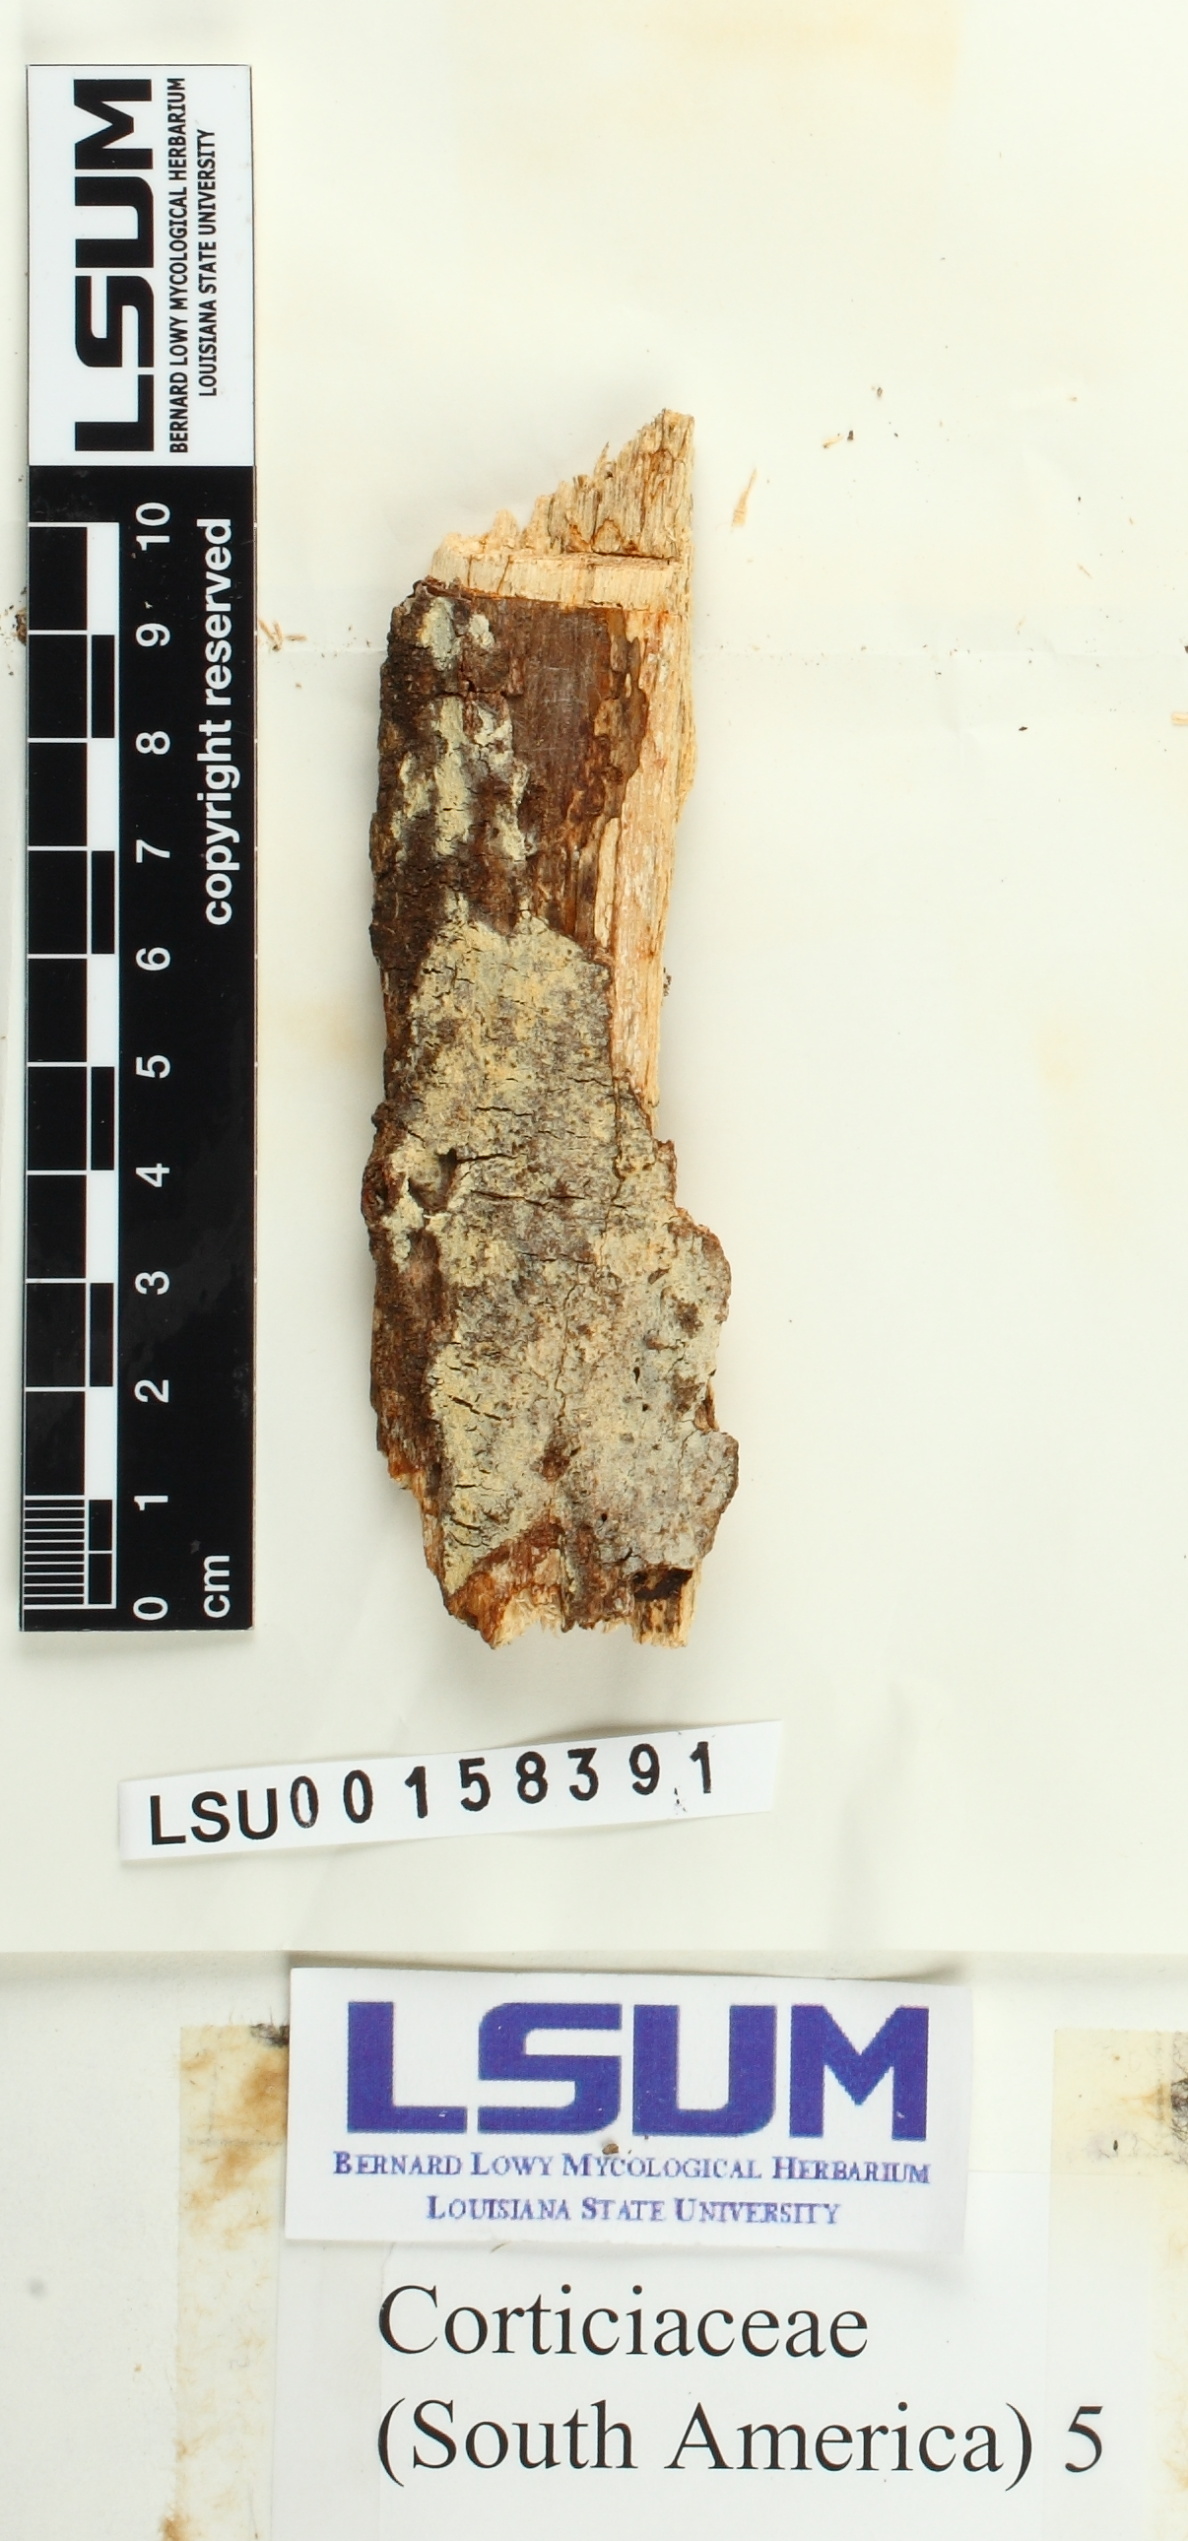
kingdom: Fungi
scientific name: Fungi
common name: Fungi
